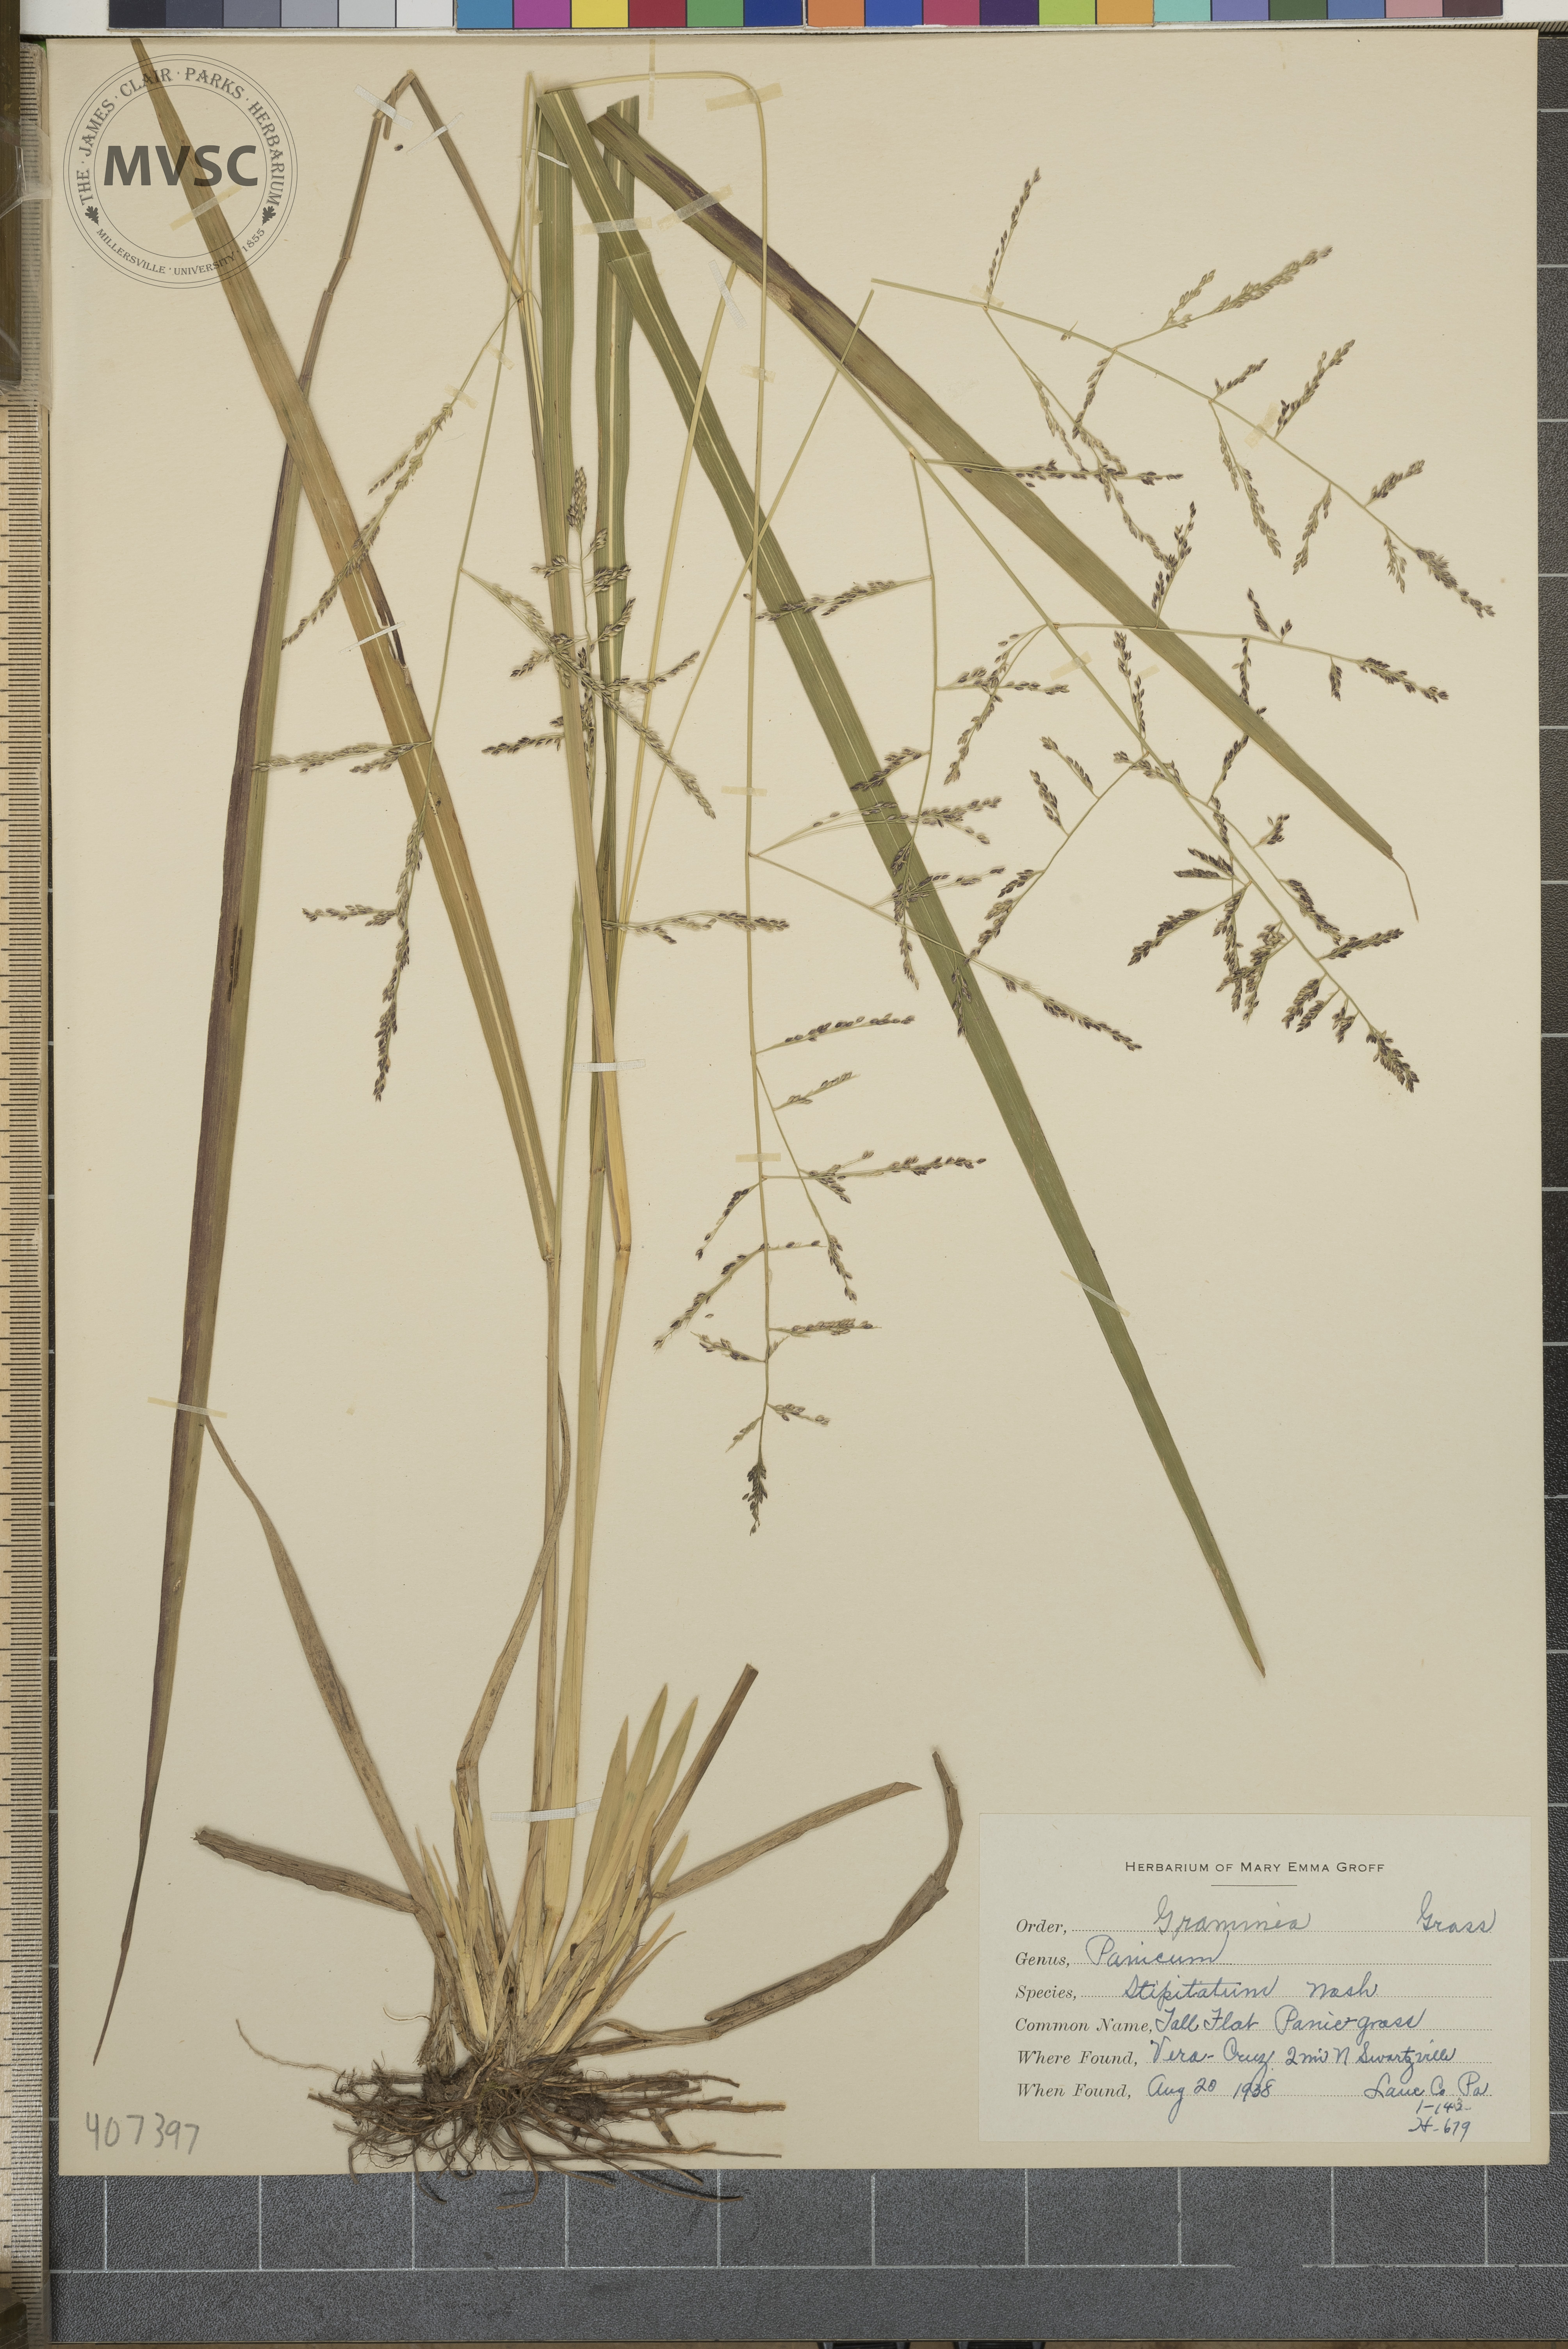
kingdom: Plantae
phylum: Tracheophyta
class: Liliopsida
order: Poales
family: Poaceae
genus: Coleataenia
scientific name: Coleataenia pulchra
